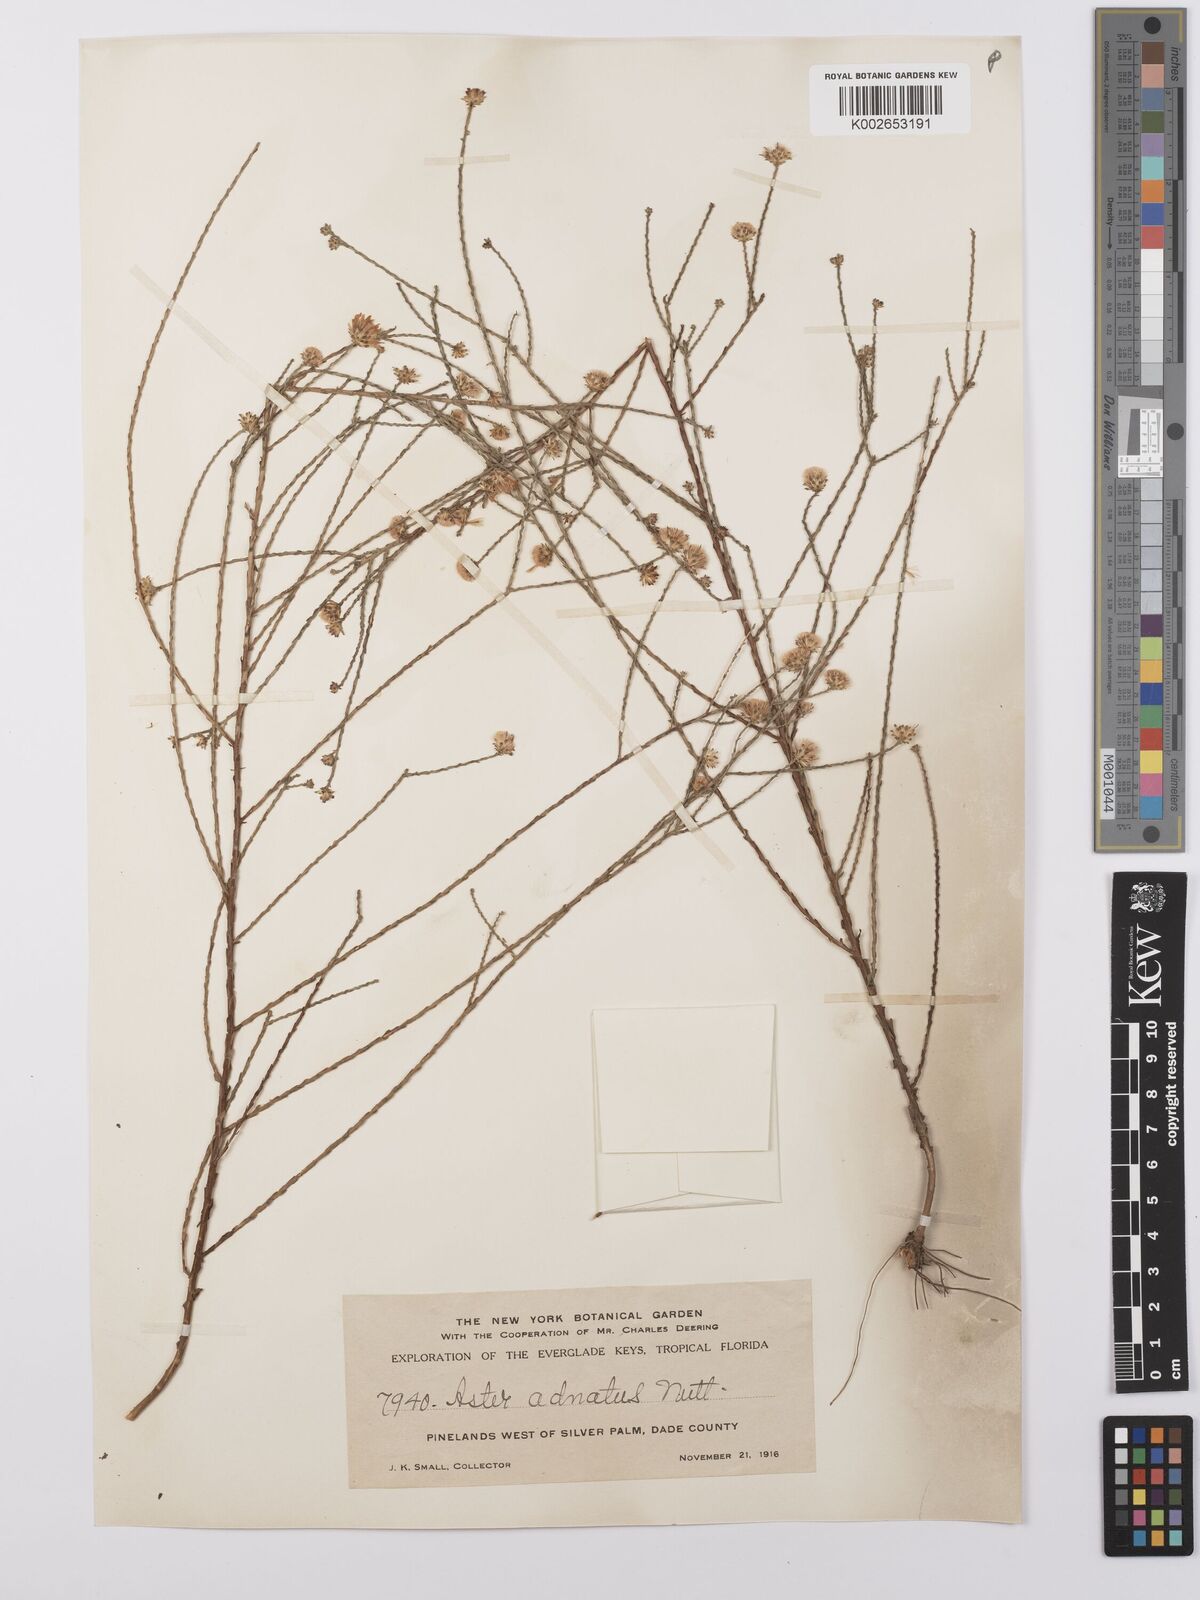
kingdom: Plantae
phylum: Tracheophyta
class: Magnoliopsida
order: Asterales
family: Asteraceae
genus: Symphyotrichum
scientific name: Symphyotrichum adnatum
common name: Scale-leaf aster
